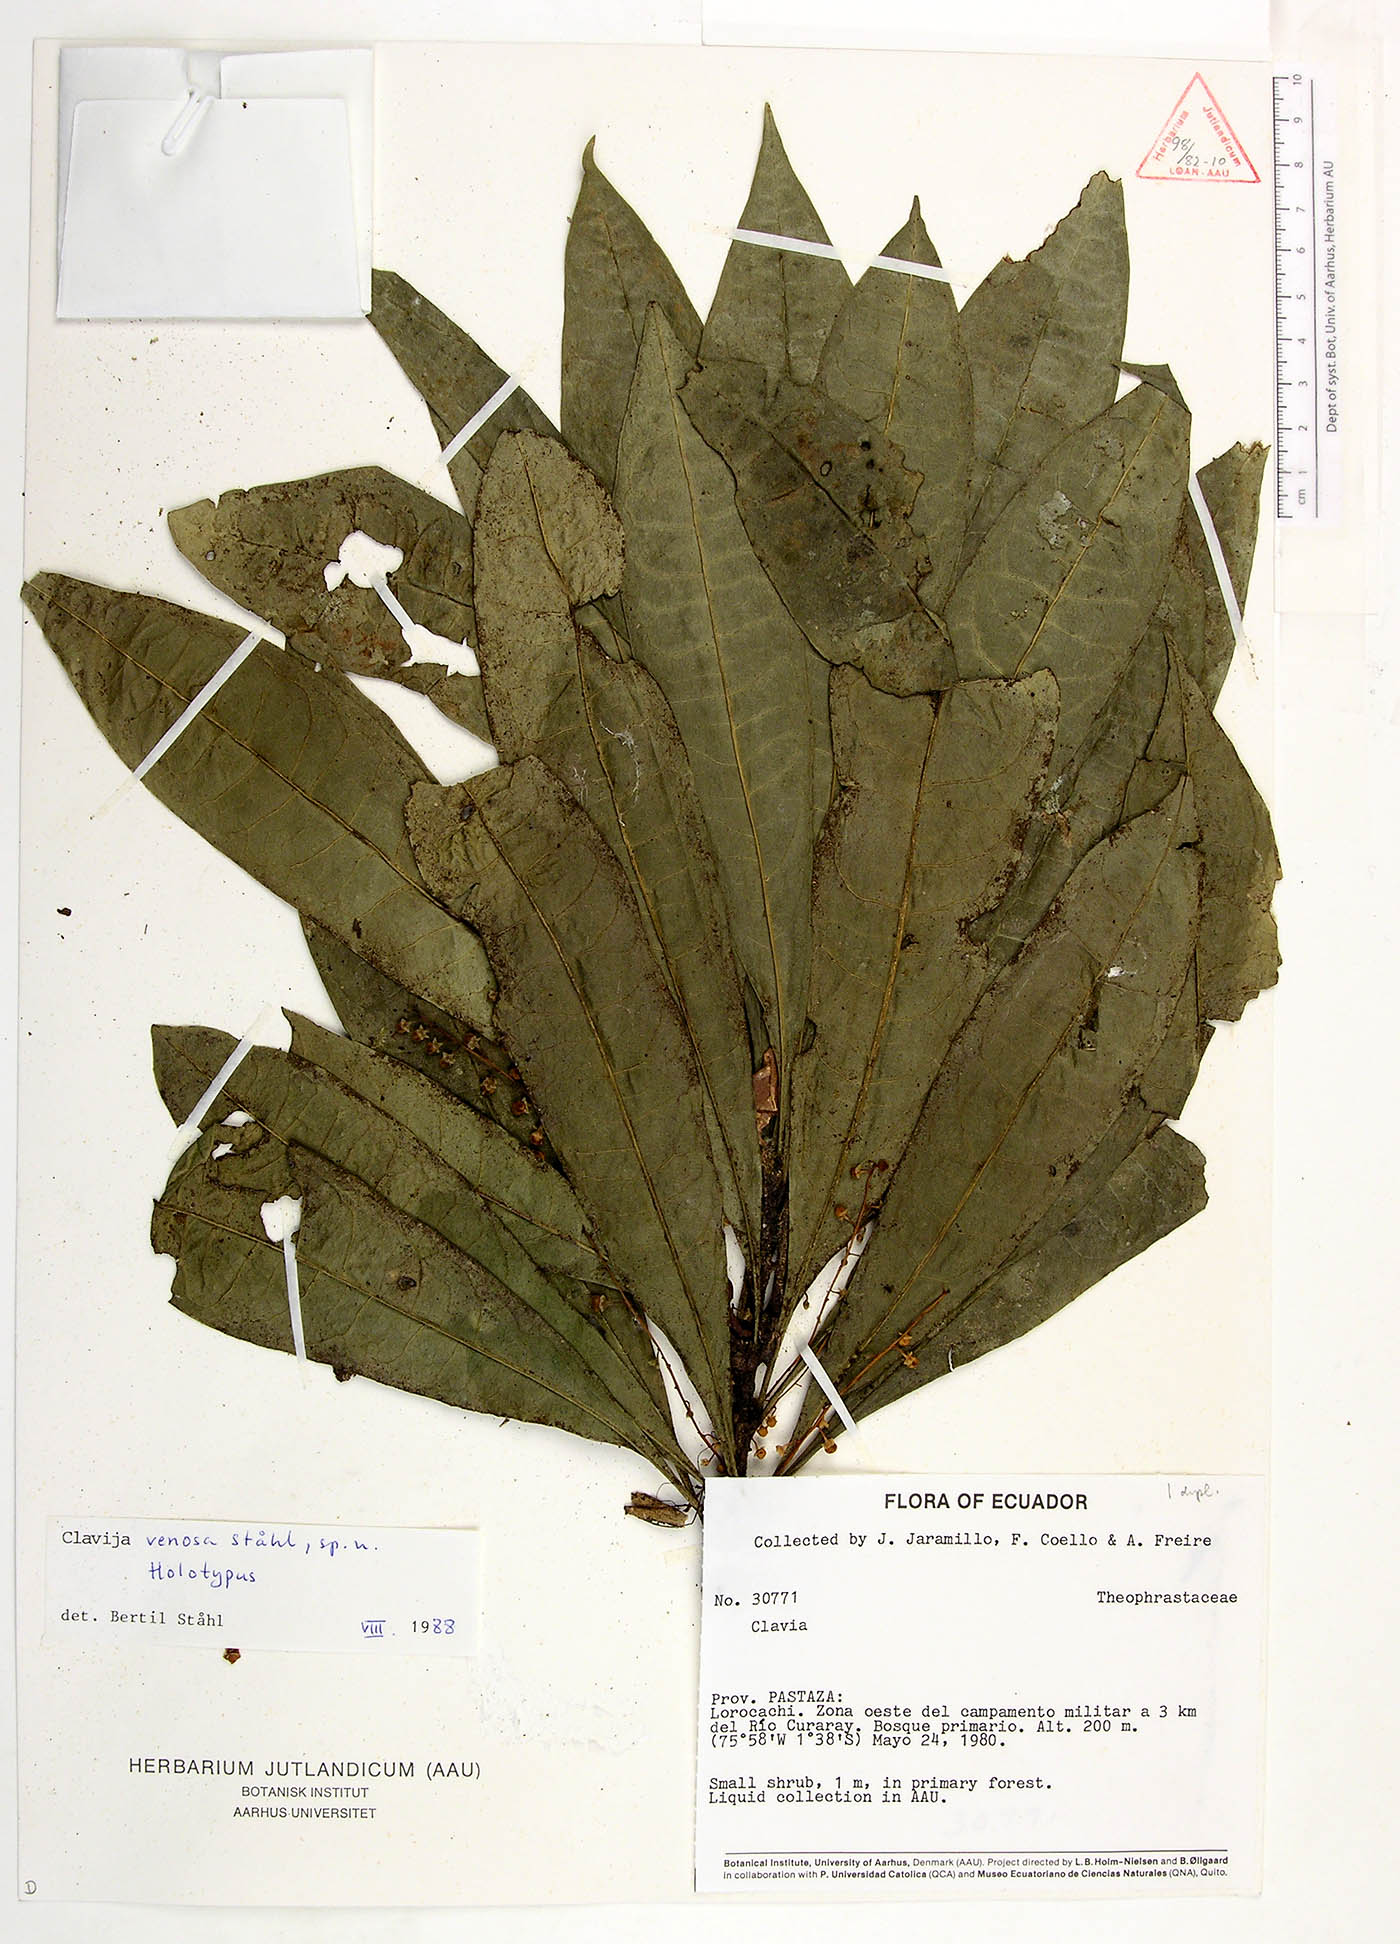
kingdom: Plantae
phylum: Tracheophyta
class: Magnoliopsida
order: Ericales
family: Primulaceae
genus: Clavija
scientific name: Clavija venosa
